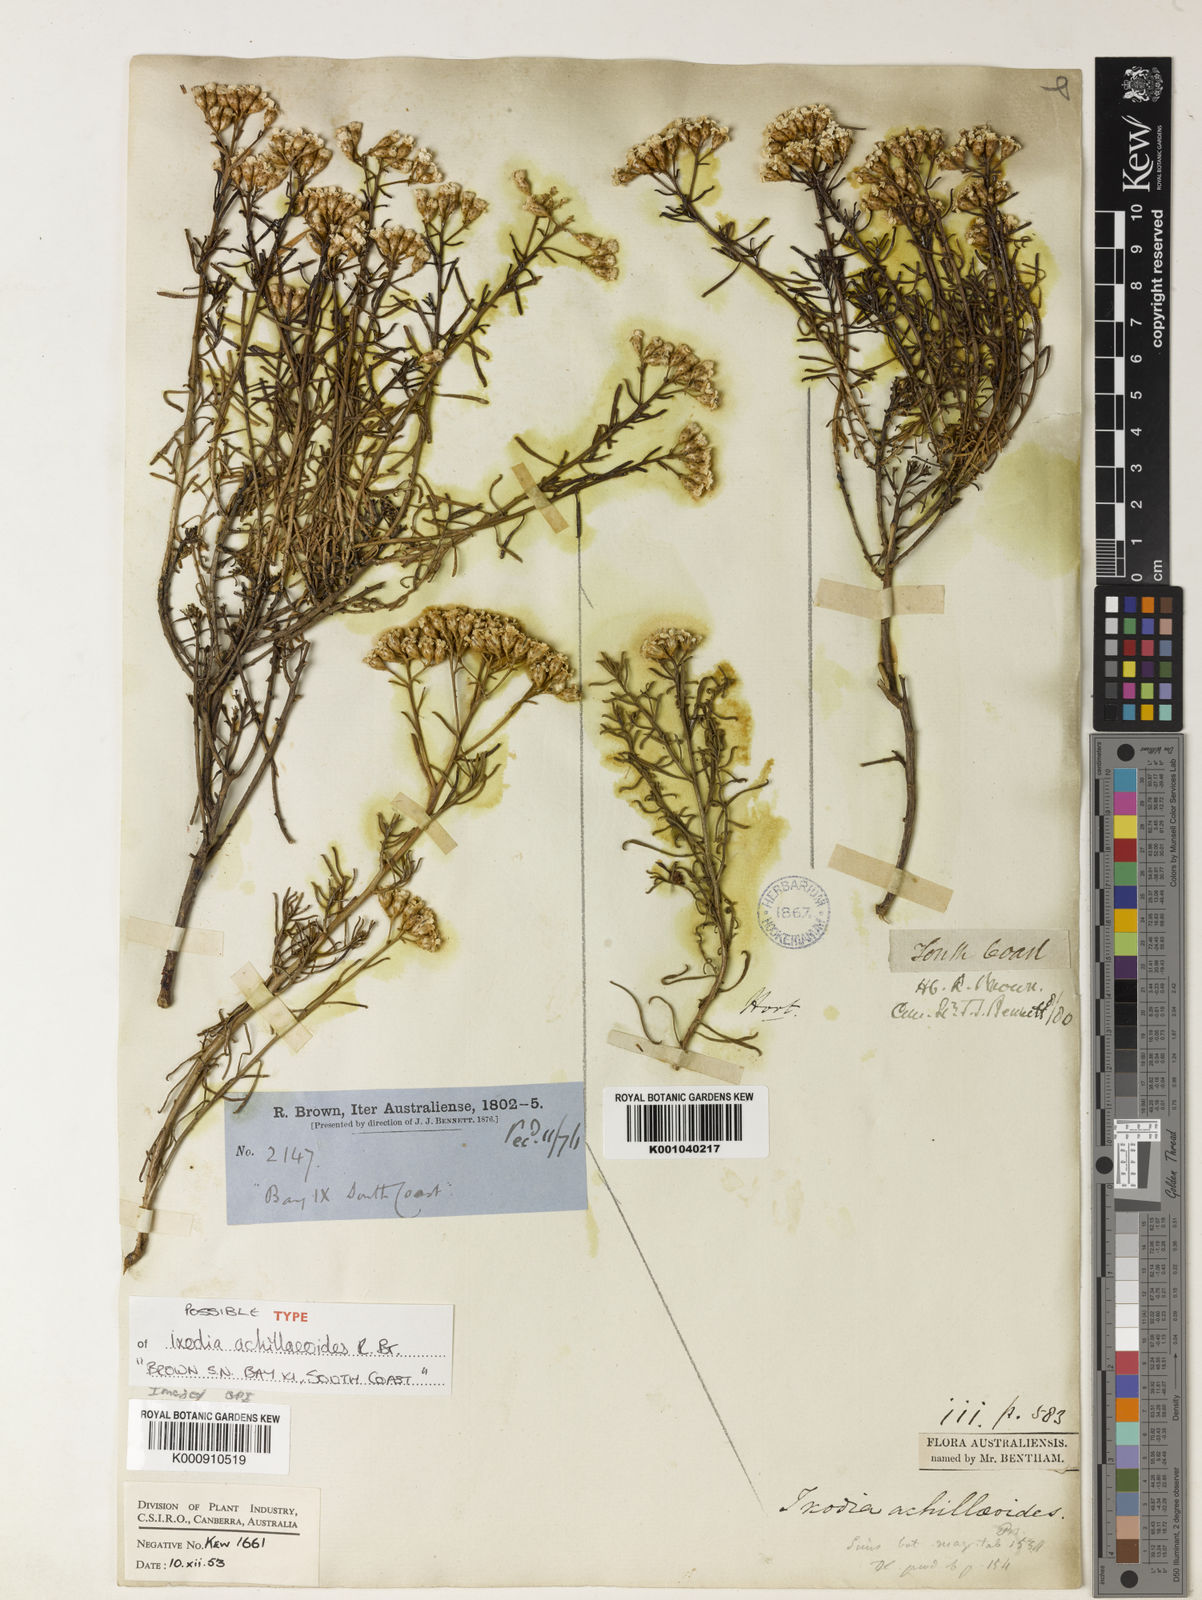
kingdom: Plantae
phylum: Tracheophyta
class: Magnoliopsida
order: Asterales
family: Asteraceae
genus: Ixodia
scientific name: Ixodia achilleoides
